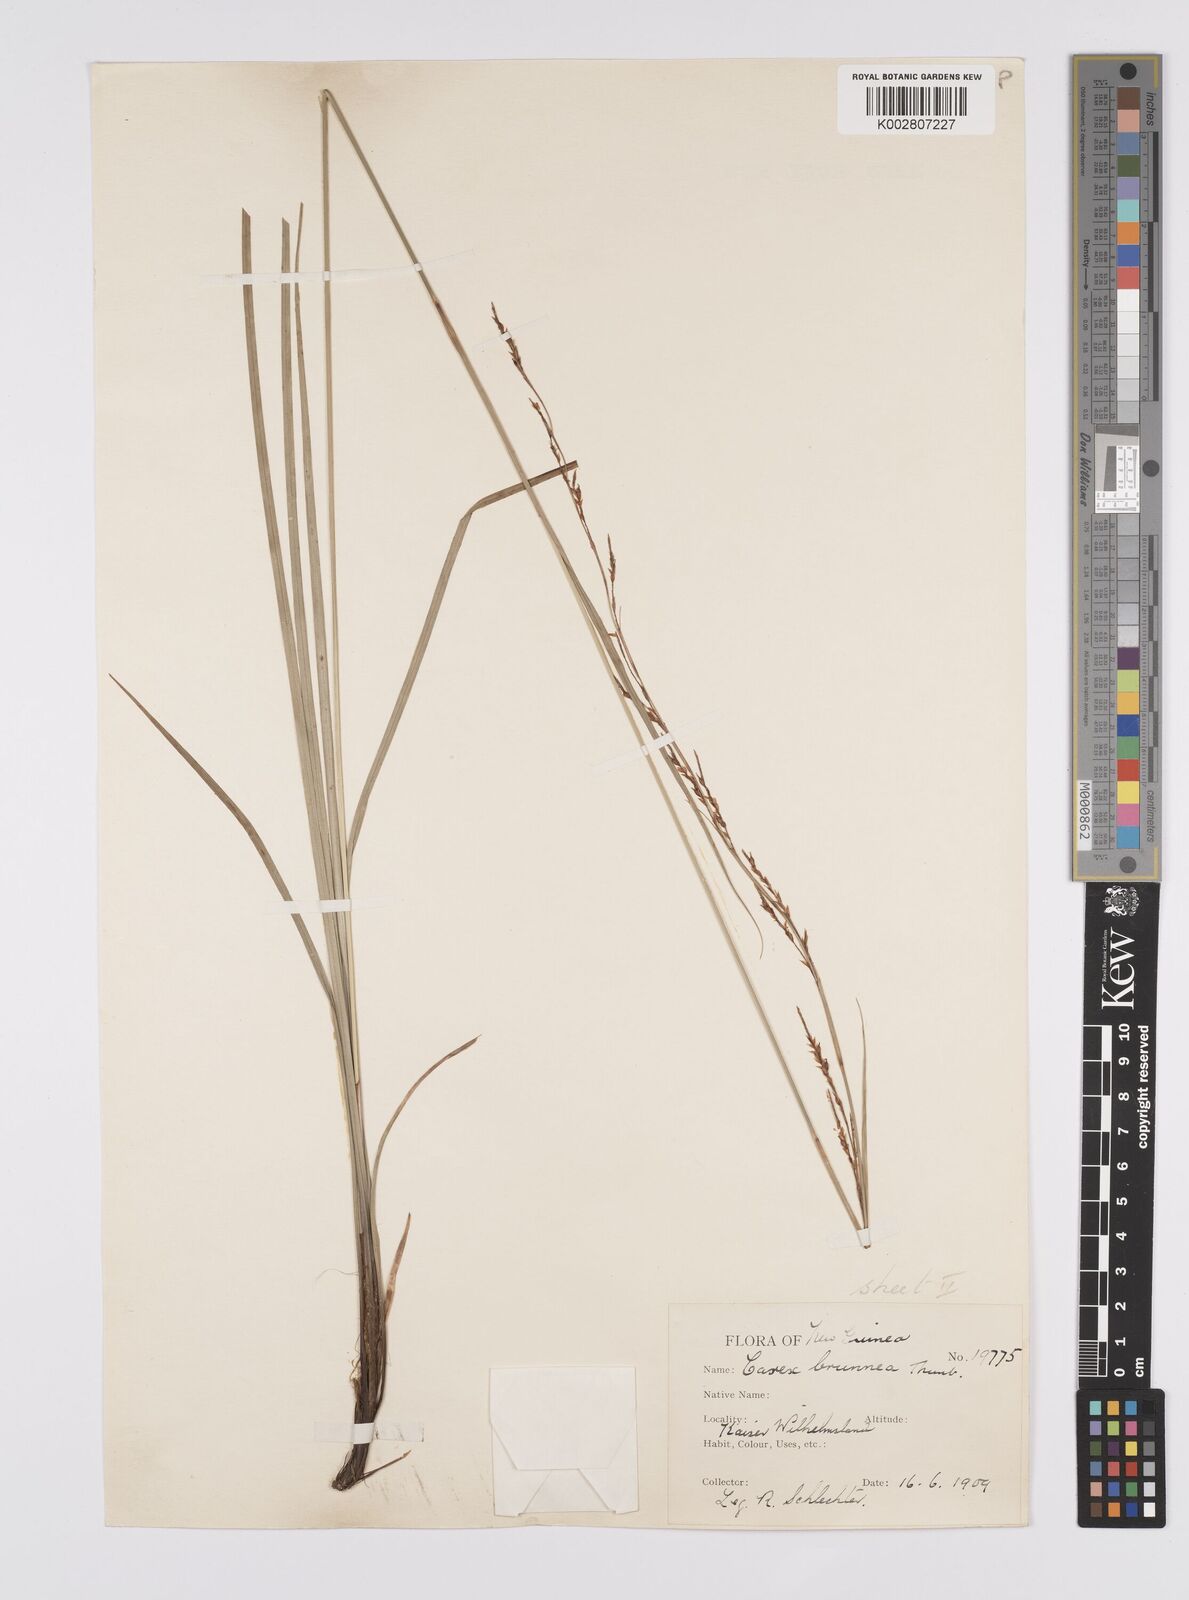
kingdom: Plantae
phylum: Tracheophyta
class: Liliopsida
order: Poales
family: Cyperaceae
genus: Carex
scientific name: Carex brunnea
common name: Greater brown sedge
